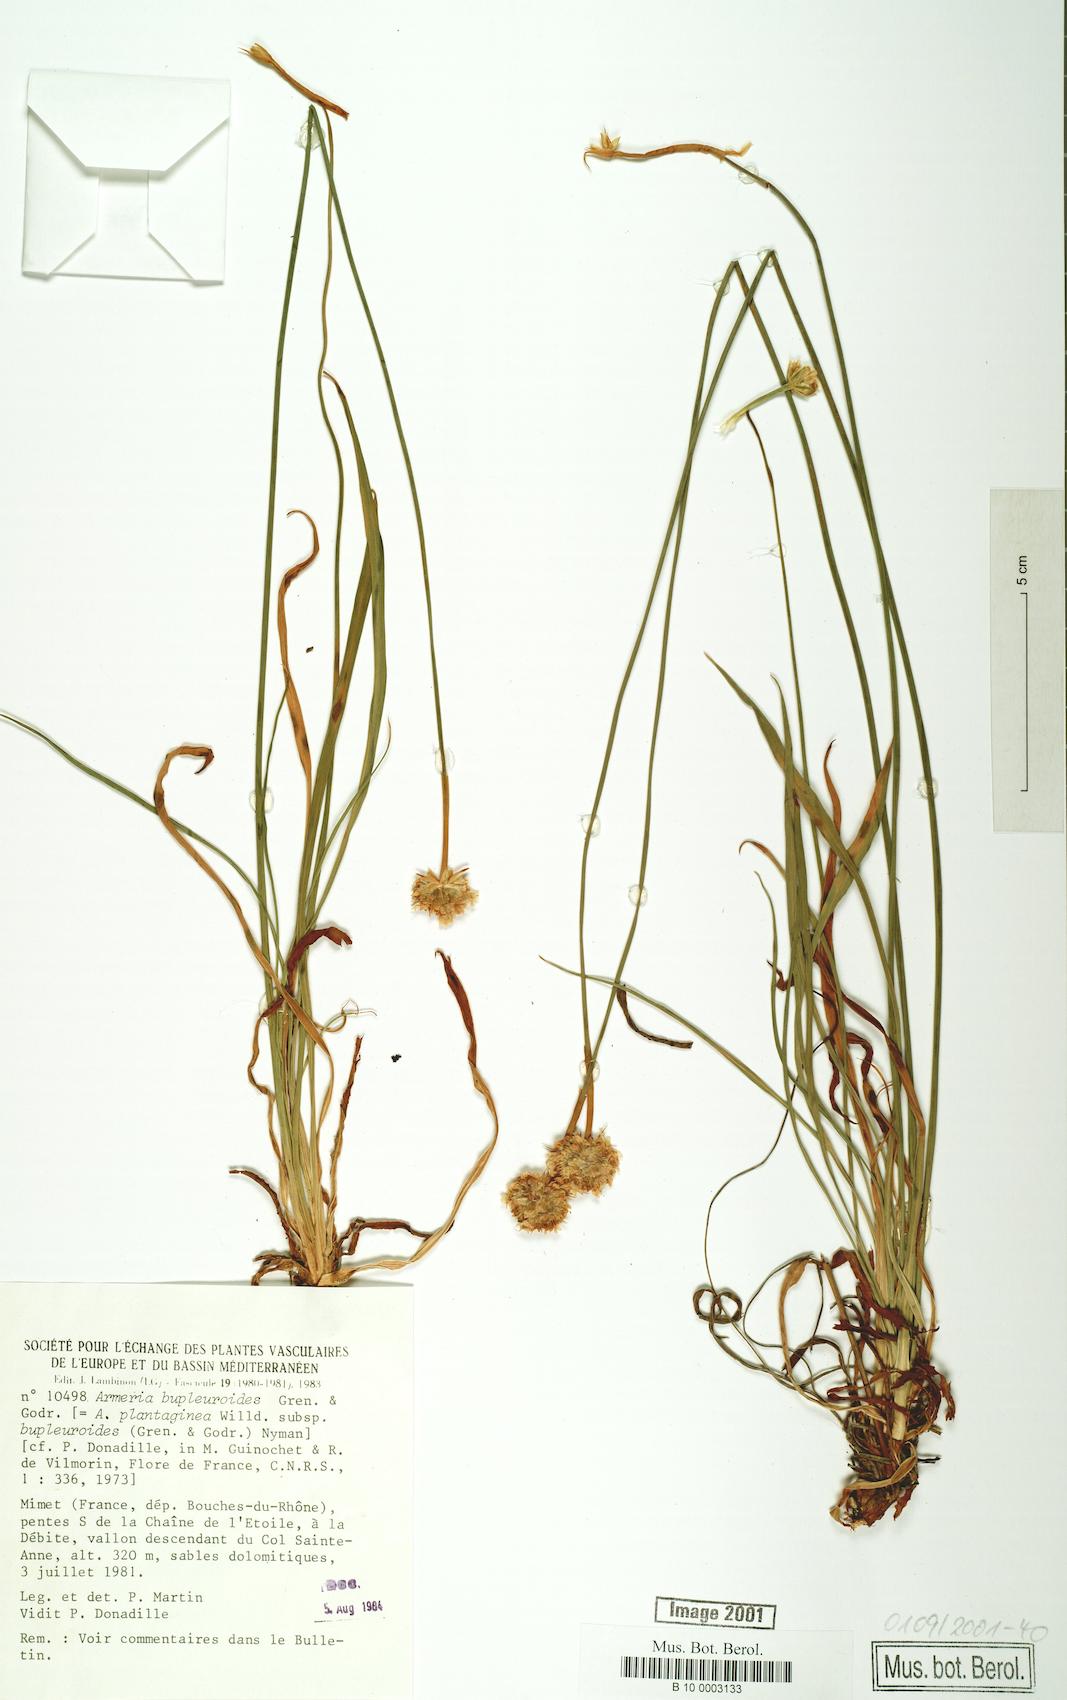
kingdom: Plantae
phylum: Tracheophyta
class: Magnoliopsida
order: Caryophyllales
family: Plumbaginaceae
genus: Armeria
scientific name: Armeria alliacea
